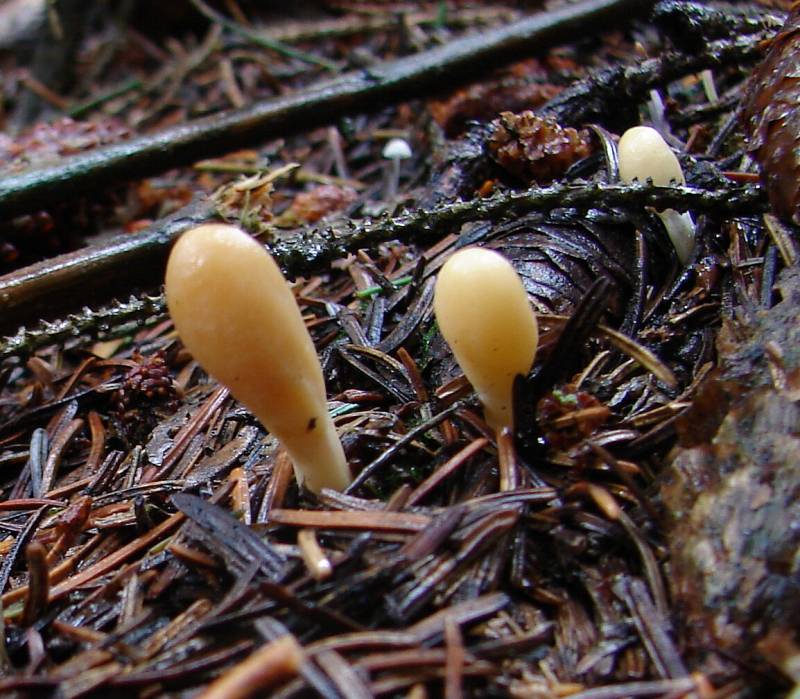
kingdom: Fungi
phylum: Ascomycota
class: Sordariomycetes
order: Hypocreales
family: Hypocreaceae
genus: Trichoderma
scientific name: Trichoderma leucopus
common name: lysstokket kødkerne
